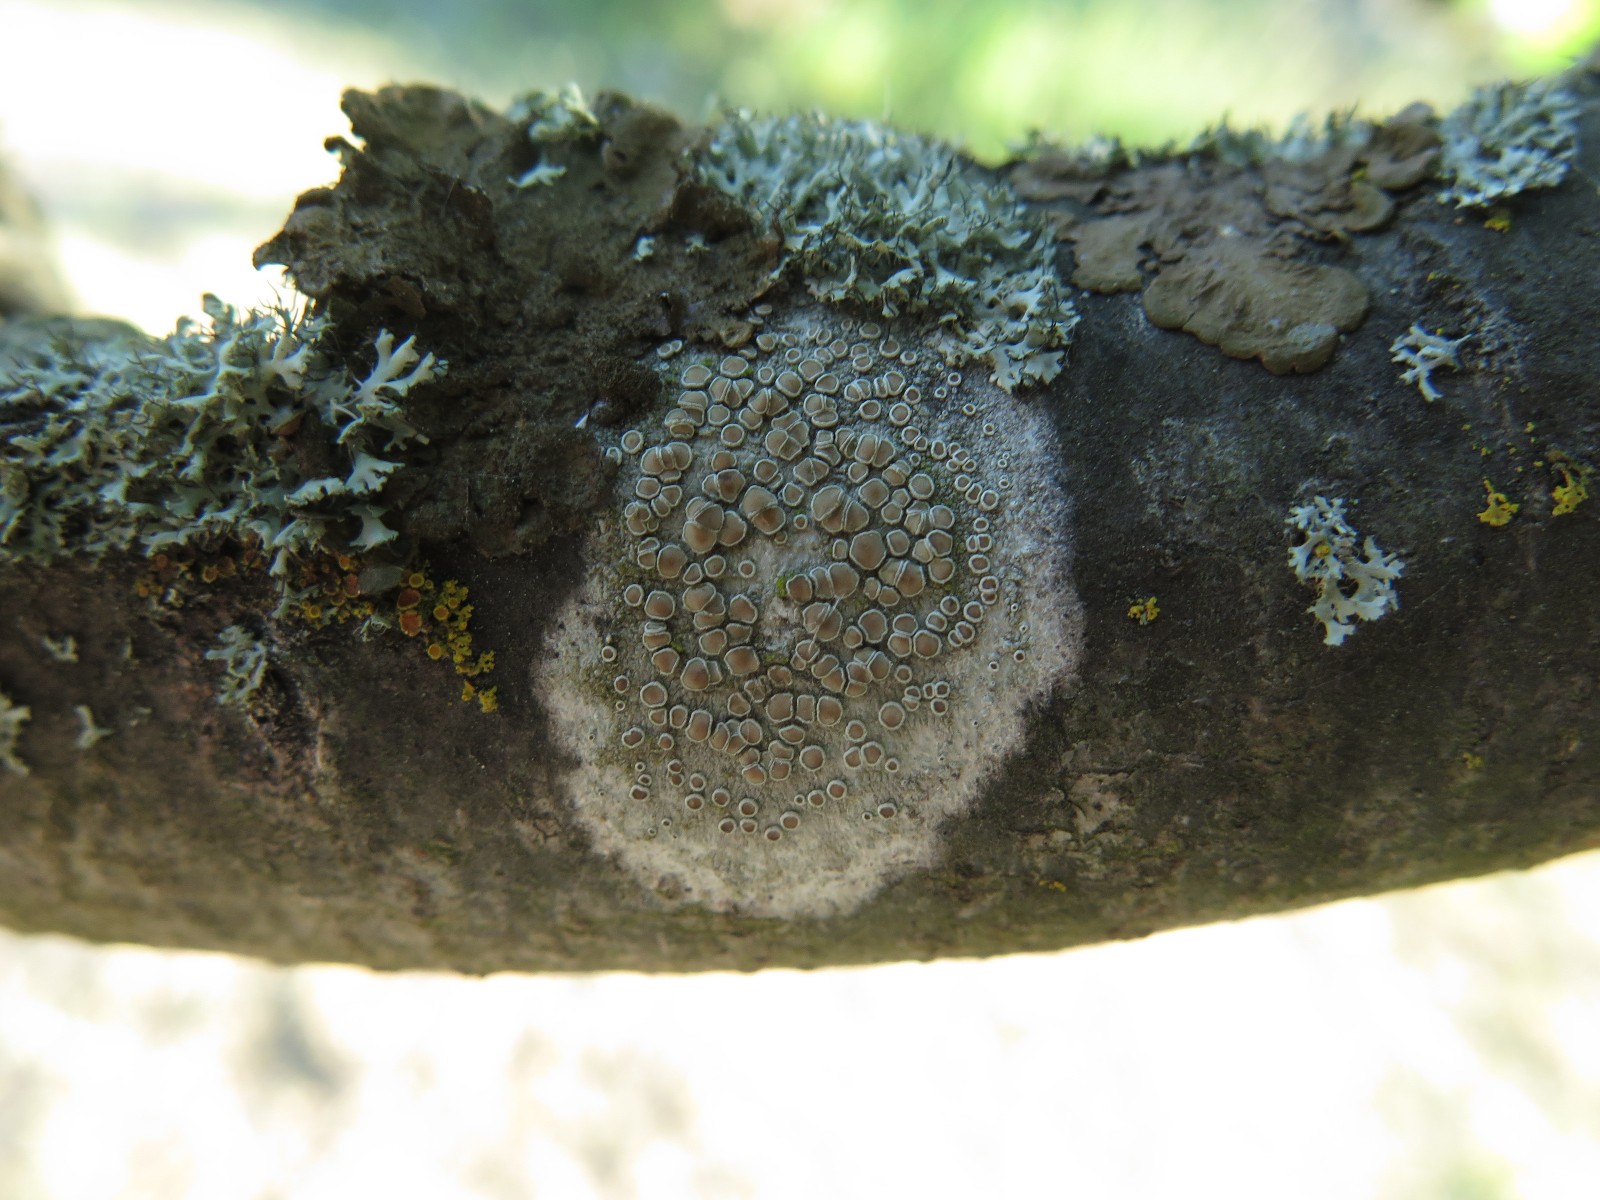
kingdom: Fungi
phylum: Ascomycota
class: Lecanoromycetes
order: Lecanorales
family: Lecanoraceae
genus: Lecanora
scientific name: Lecanora chlarotera
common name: brun kantskivelav
